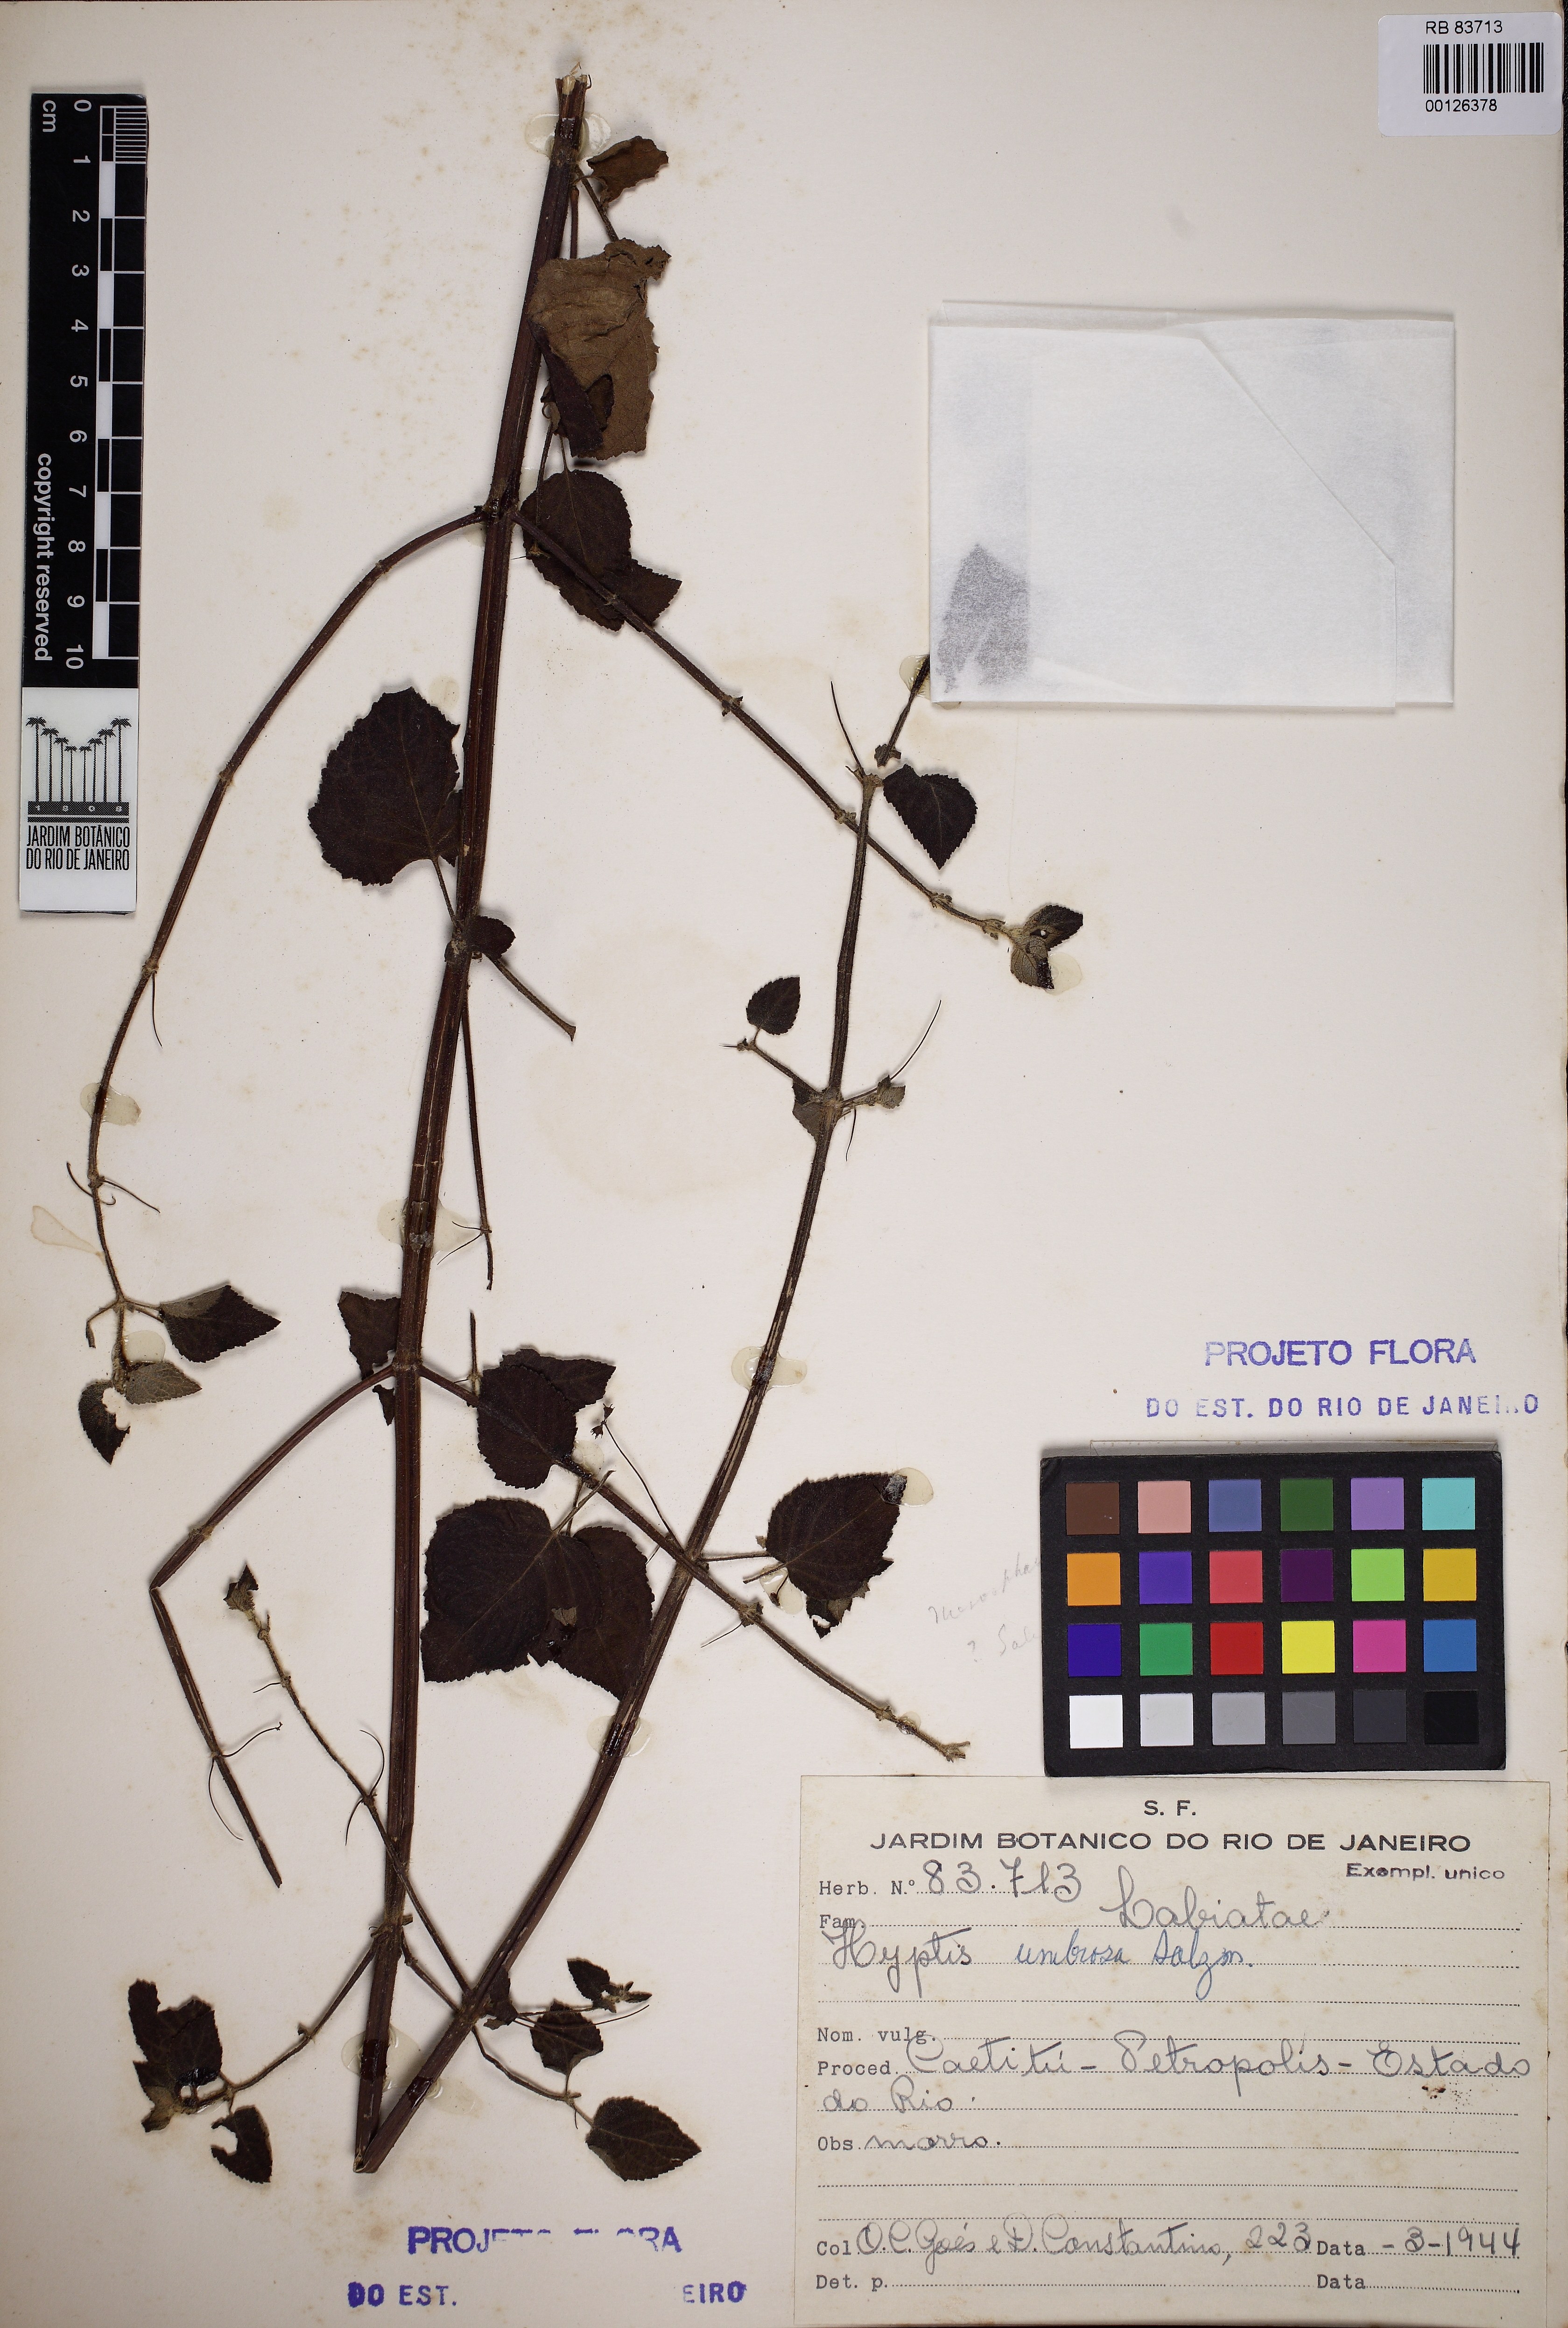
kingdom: Plantae
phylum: Tracheophyta
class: Magnoliopsida
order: Lamiales
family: Lamiaceae
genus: Mesosphaerum
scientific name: Mesosphaerum sidifolium
